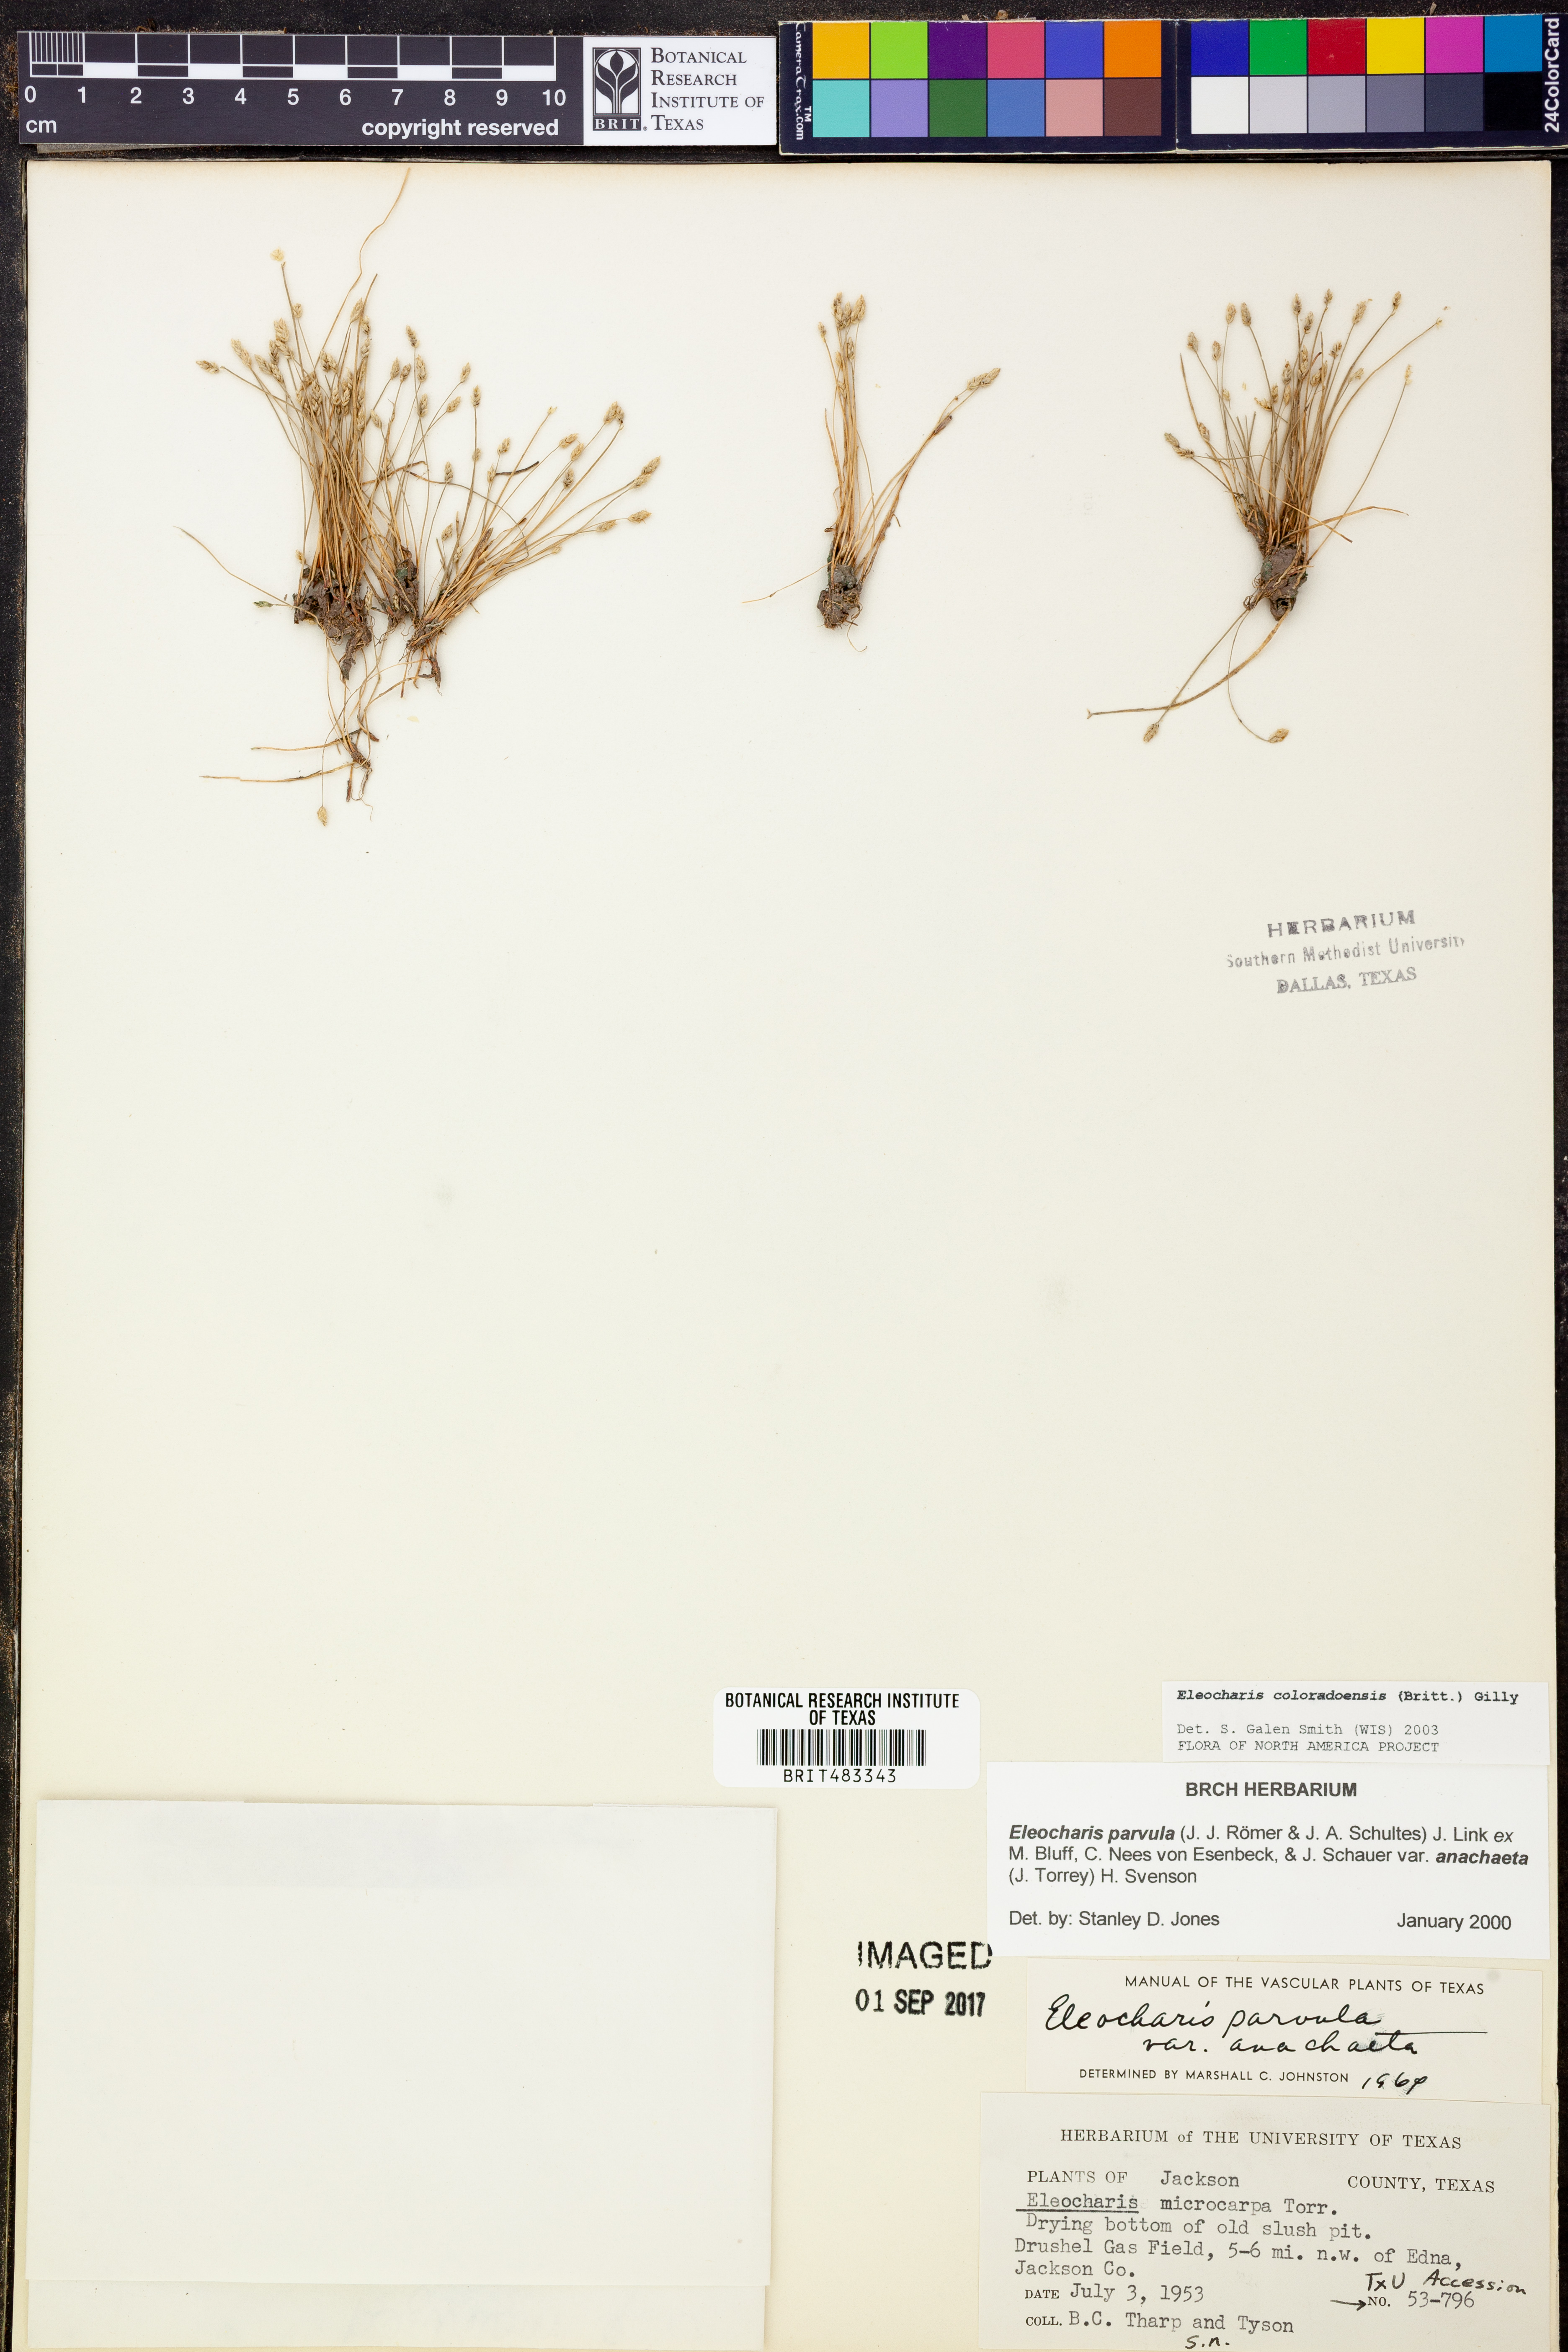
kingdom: Plantae
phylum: Tracheophyta
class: Liliopsida
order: Poales
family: Cyperaceae
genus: Eleocharis
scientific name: Eleocharis coloradoensis
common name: Colorado spikerush
